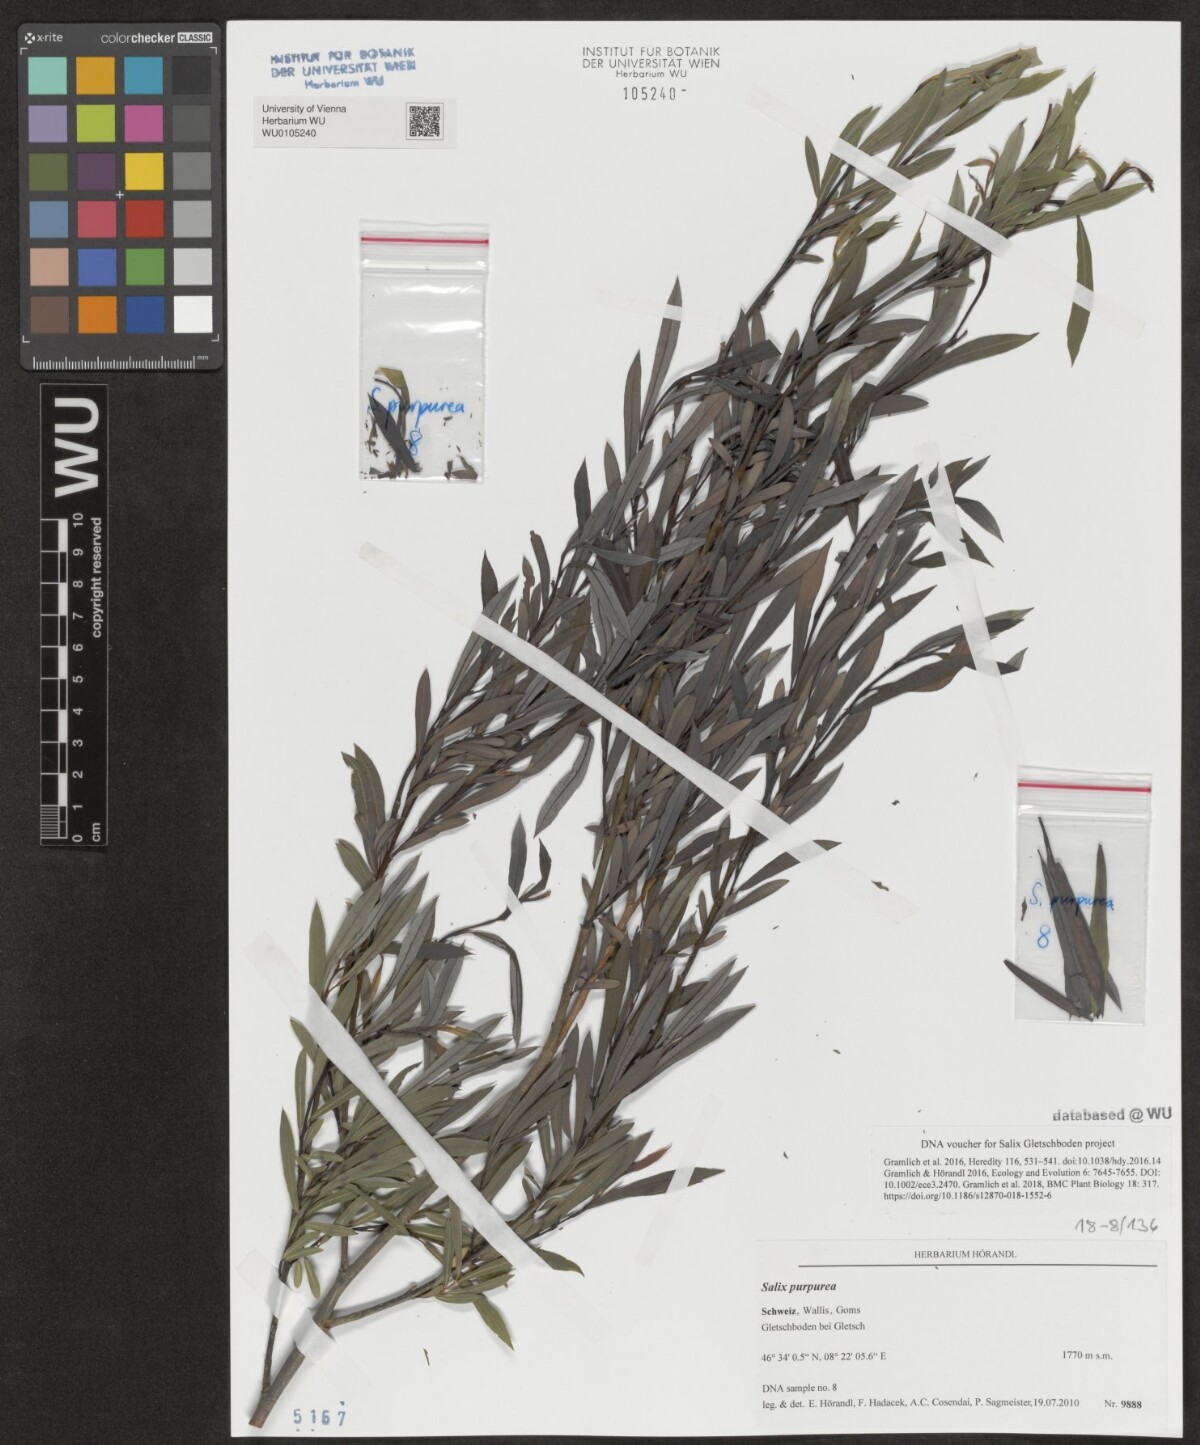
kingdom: Plantae
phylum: Tracheophyta
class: Magnoliopsida
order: Malpighiales
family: Salicaceae
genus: Salix
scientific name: Salix purpurea
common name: Purple willow
